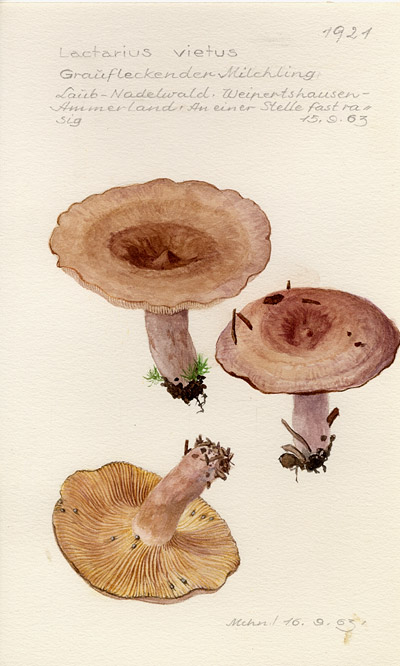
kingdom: Fungi
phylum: Basidiomycota
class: Agaricomycetes
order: Russulales
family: Russulaceae
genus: Lactarius
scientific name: Lactarius vietus
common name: Grey milk-cap
